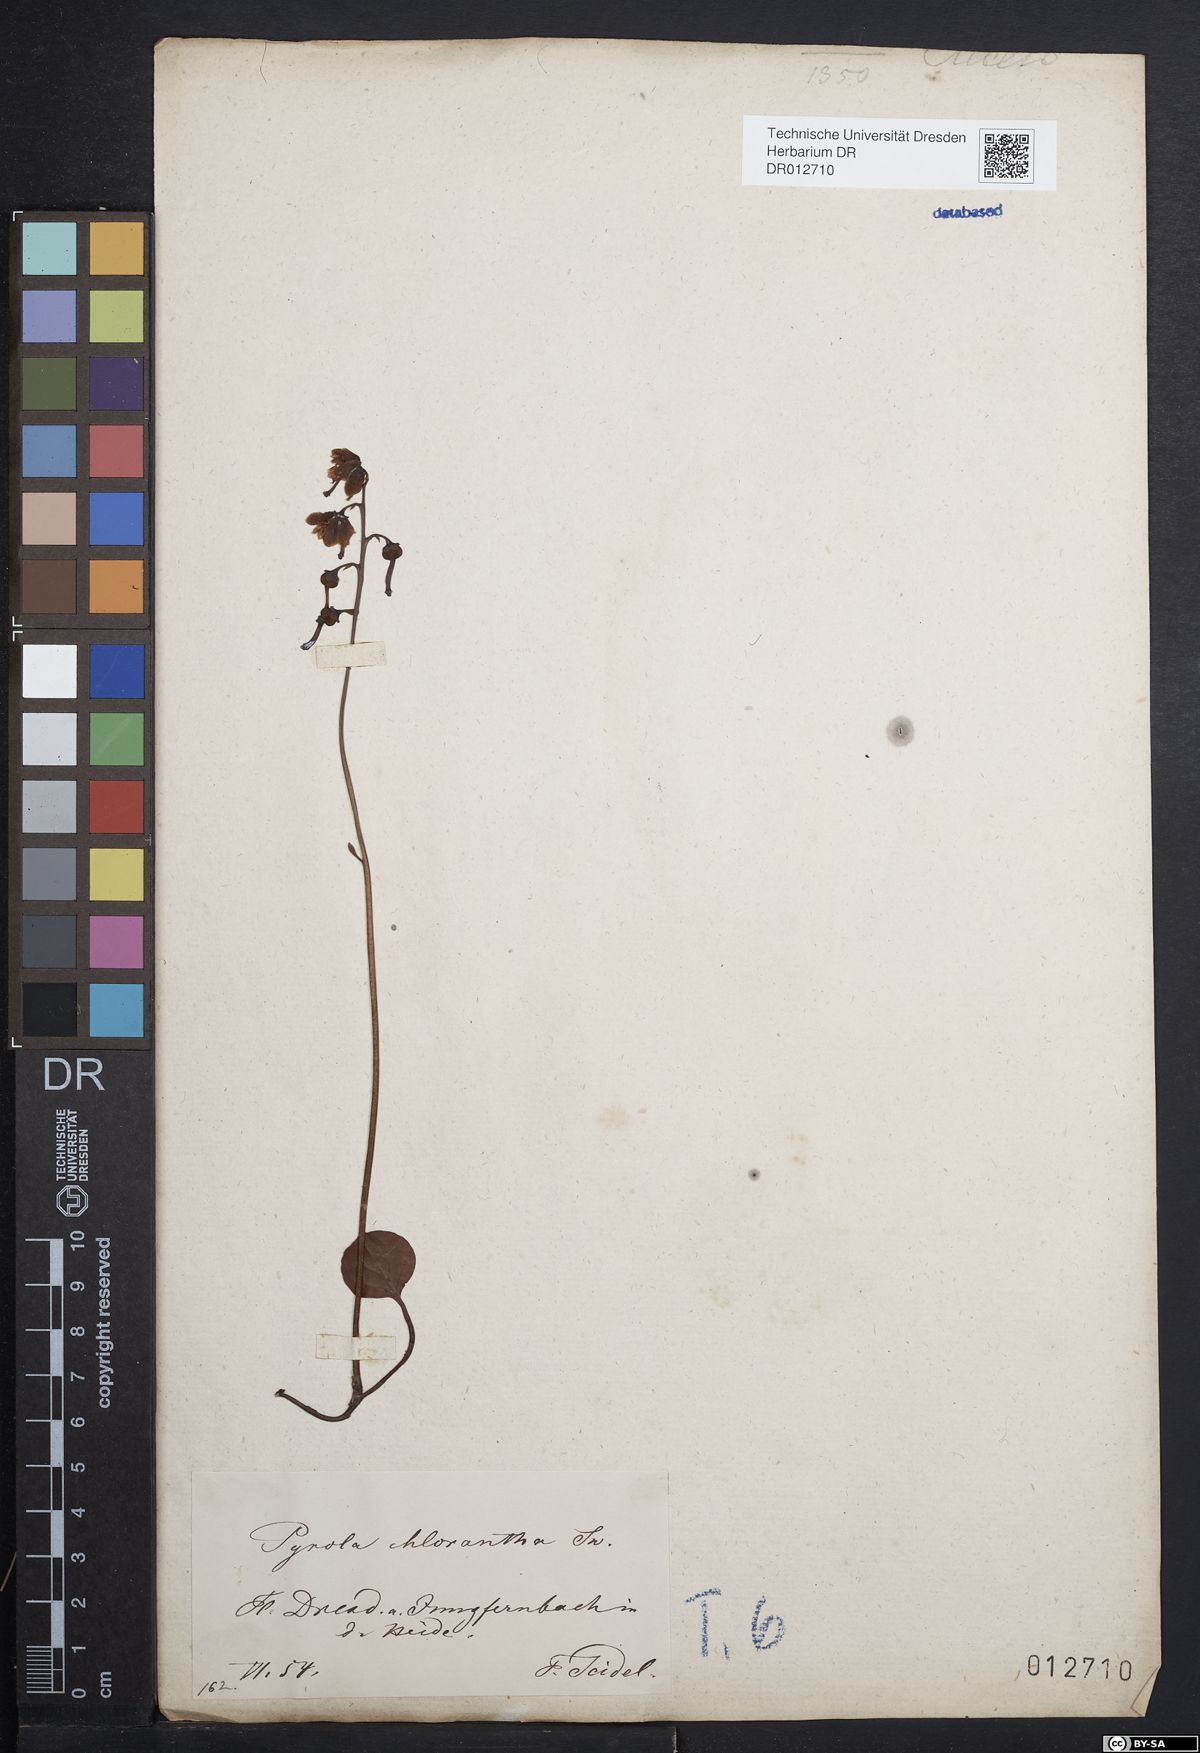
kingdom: Plantae
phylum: Tracheophyta
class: Magnoliopsida
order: Ericales
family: Ericaceae
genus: Pyrola
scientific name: Pyrola chlorantha
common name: Green wintergreen
